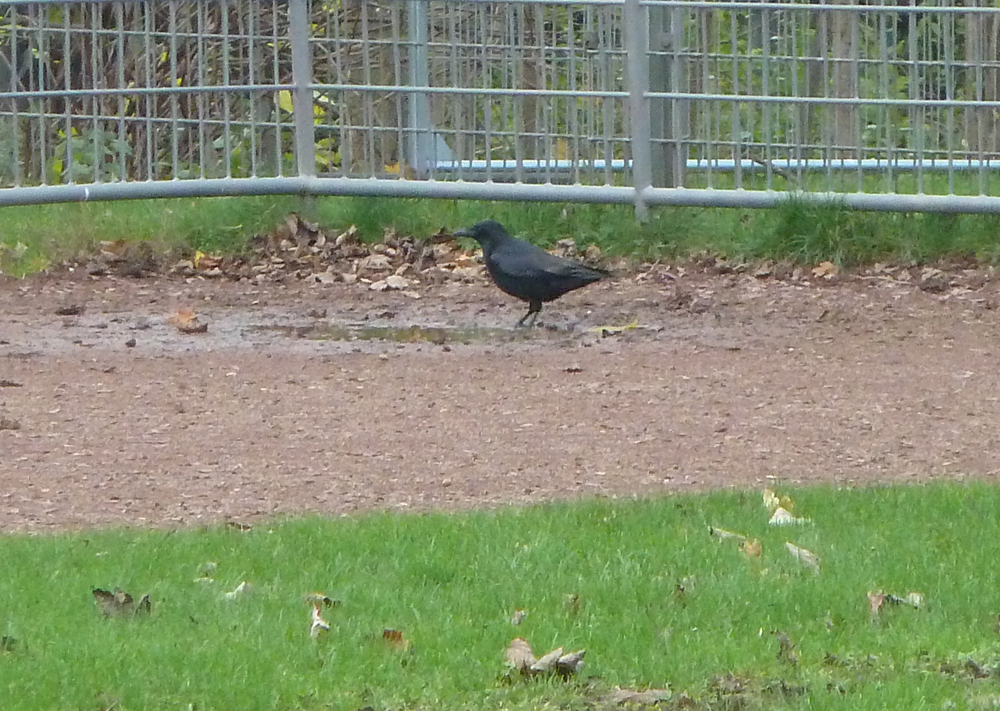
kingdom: Animalia
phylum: Chordata
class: Aves
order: Passeriformes
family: Corvidae
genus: Corvus
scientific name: Corvus corone
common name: Carrion crow
